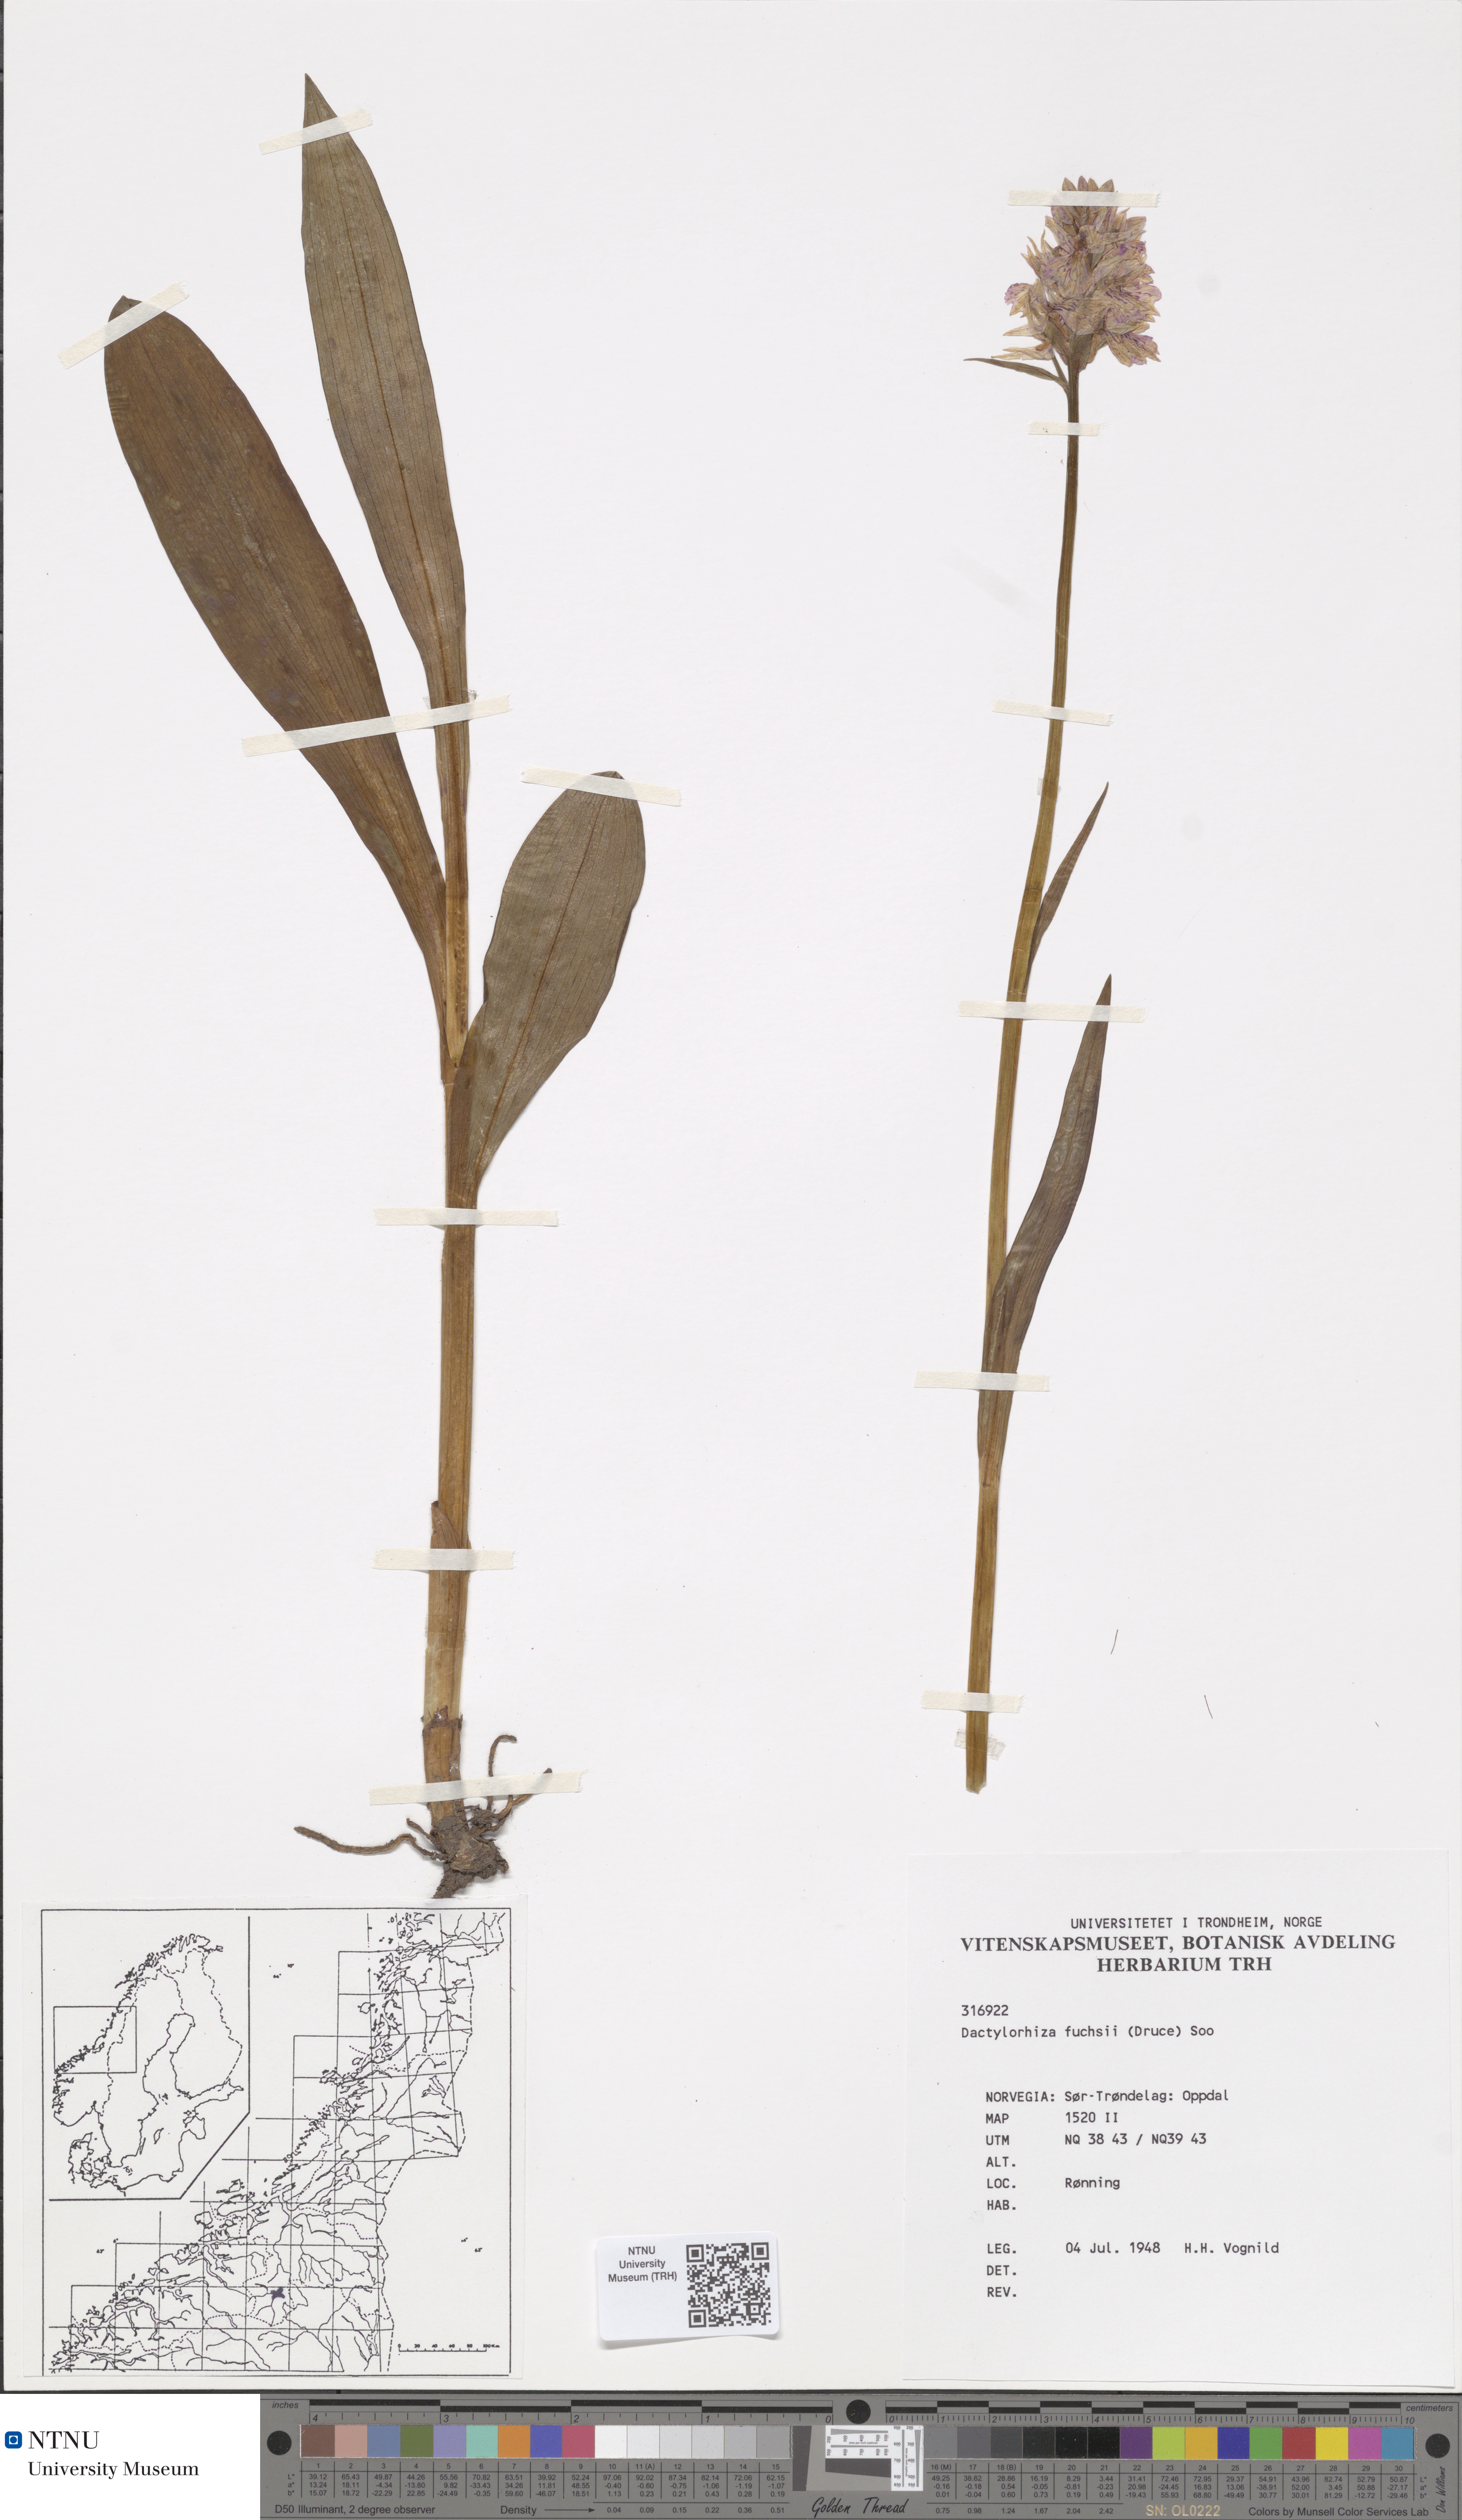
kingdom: Plantae
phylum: Tracheophyta
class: Liliopsida
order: Asparagales
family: Orchidaceae
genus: Dactylorhiza
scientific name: Dactylorhiza maculata
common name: Heath spotted-orchid
